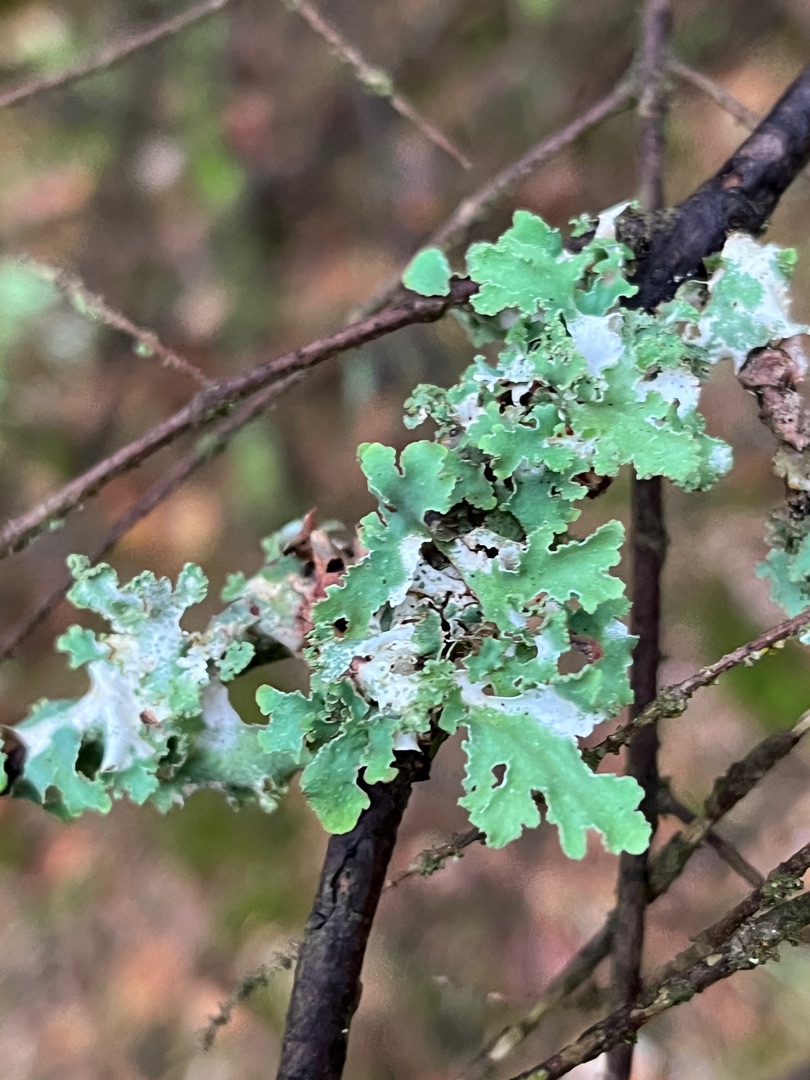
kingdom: Fungi
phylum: Ascomycota
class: Lecanoromycetes
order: Lecanorales
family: Parmeliaceae
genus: Platismatia
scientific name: Platismatia glauca
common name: Blågrå papirlav
